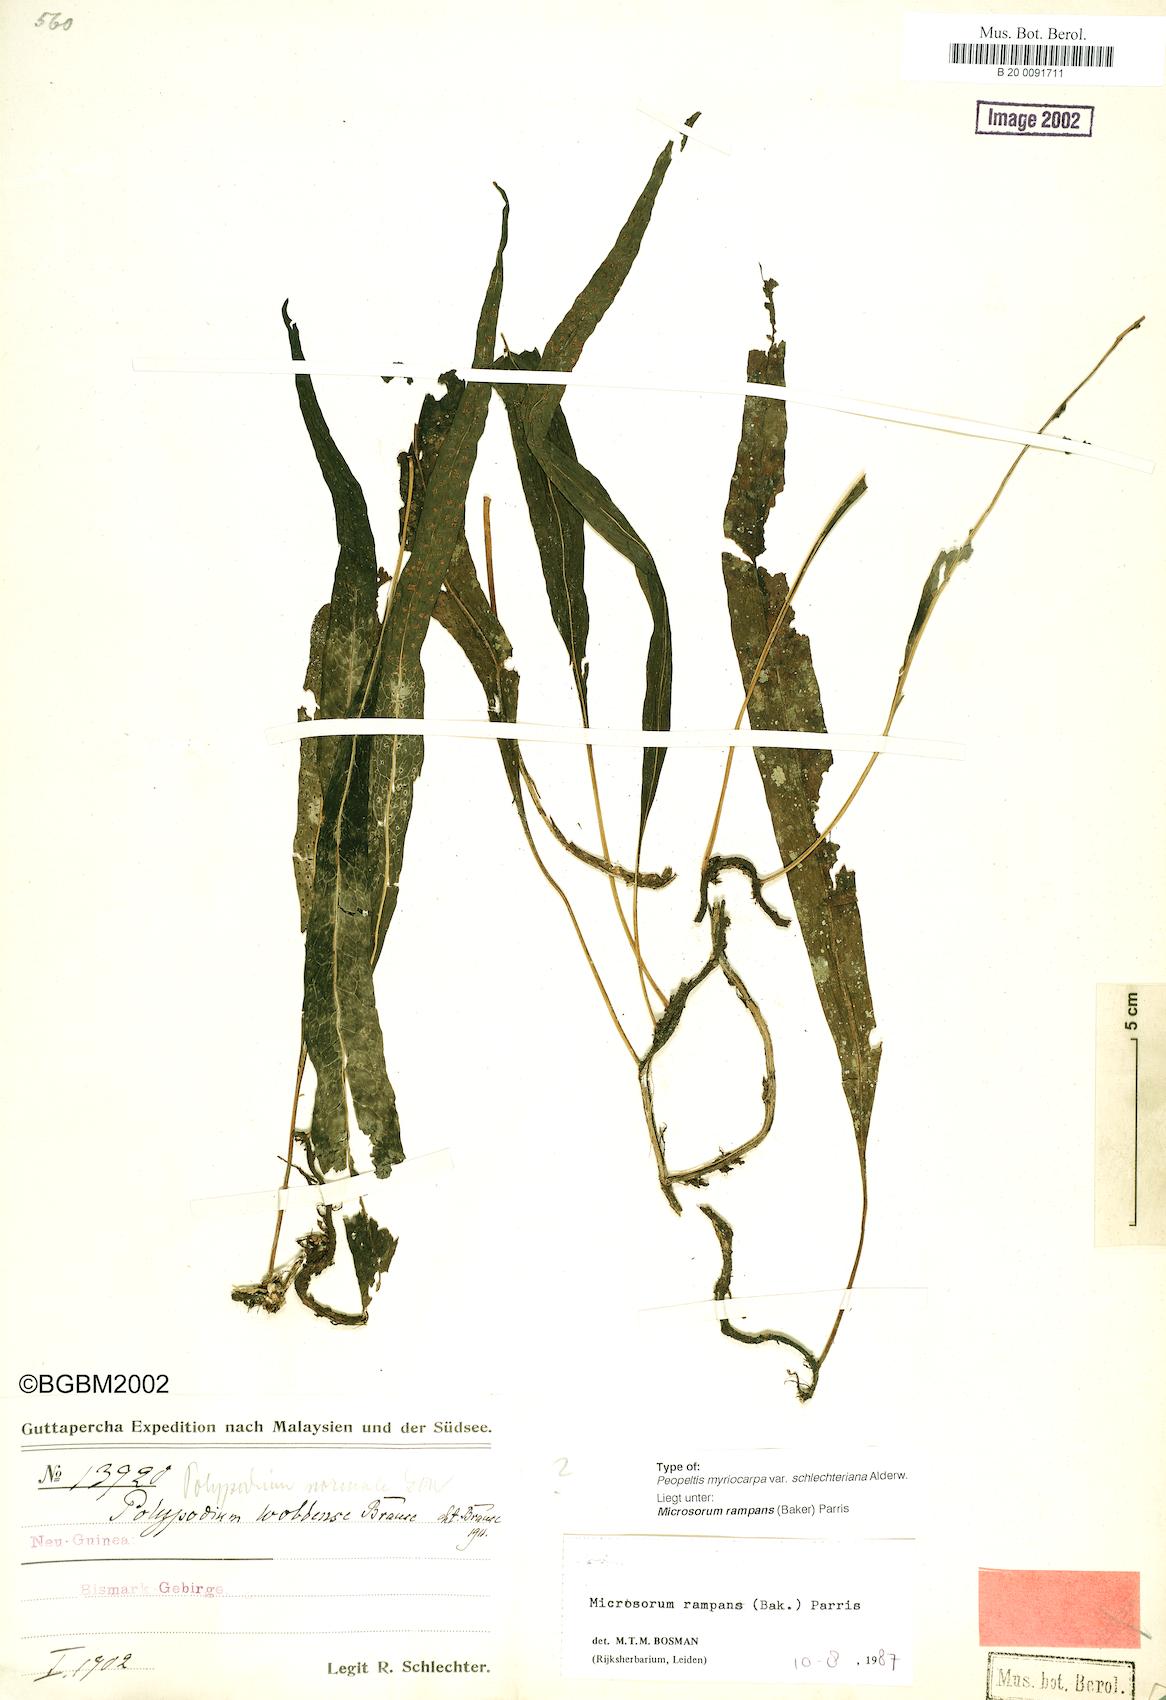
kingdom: Plantae
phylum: Tracheophyta
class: Polypodiopsida
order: Polypodiales
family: Polypodiaceae
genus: Microsorum
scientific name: Microsorum rampans
